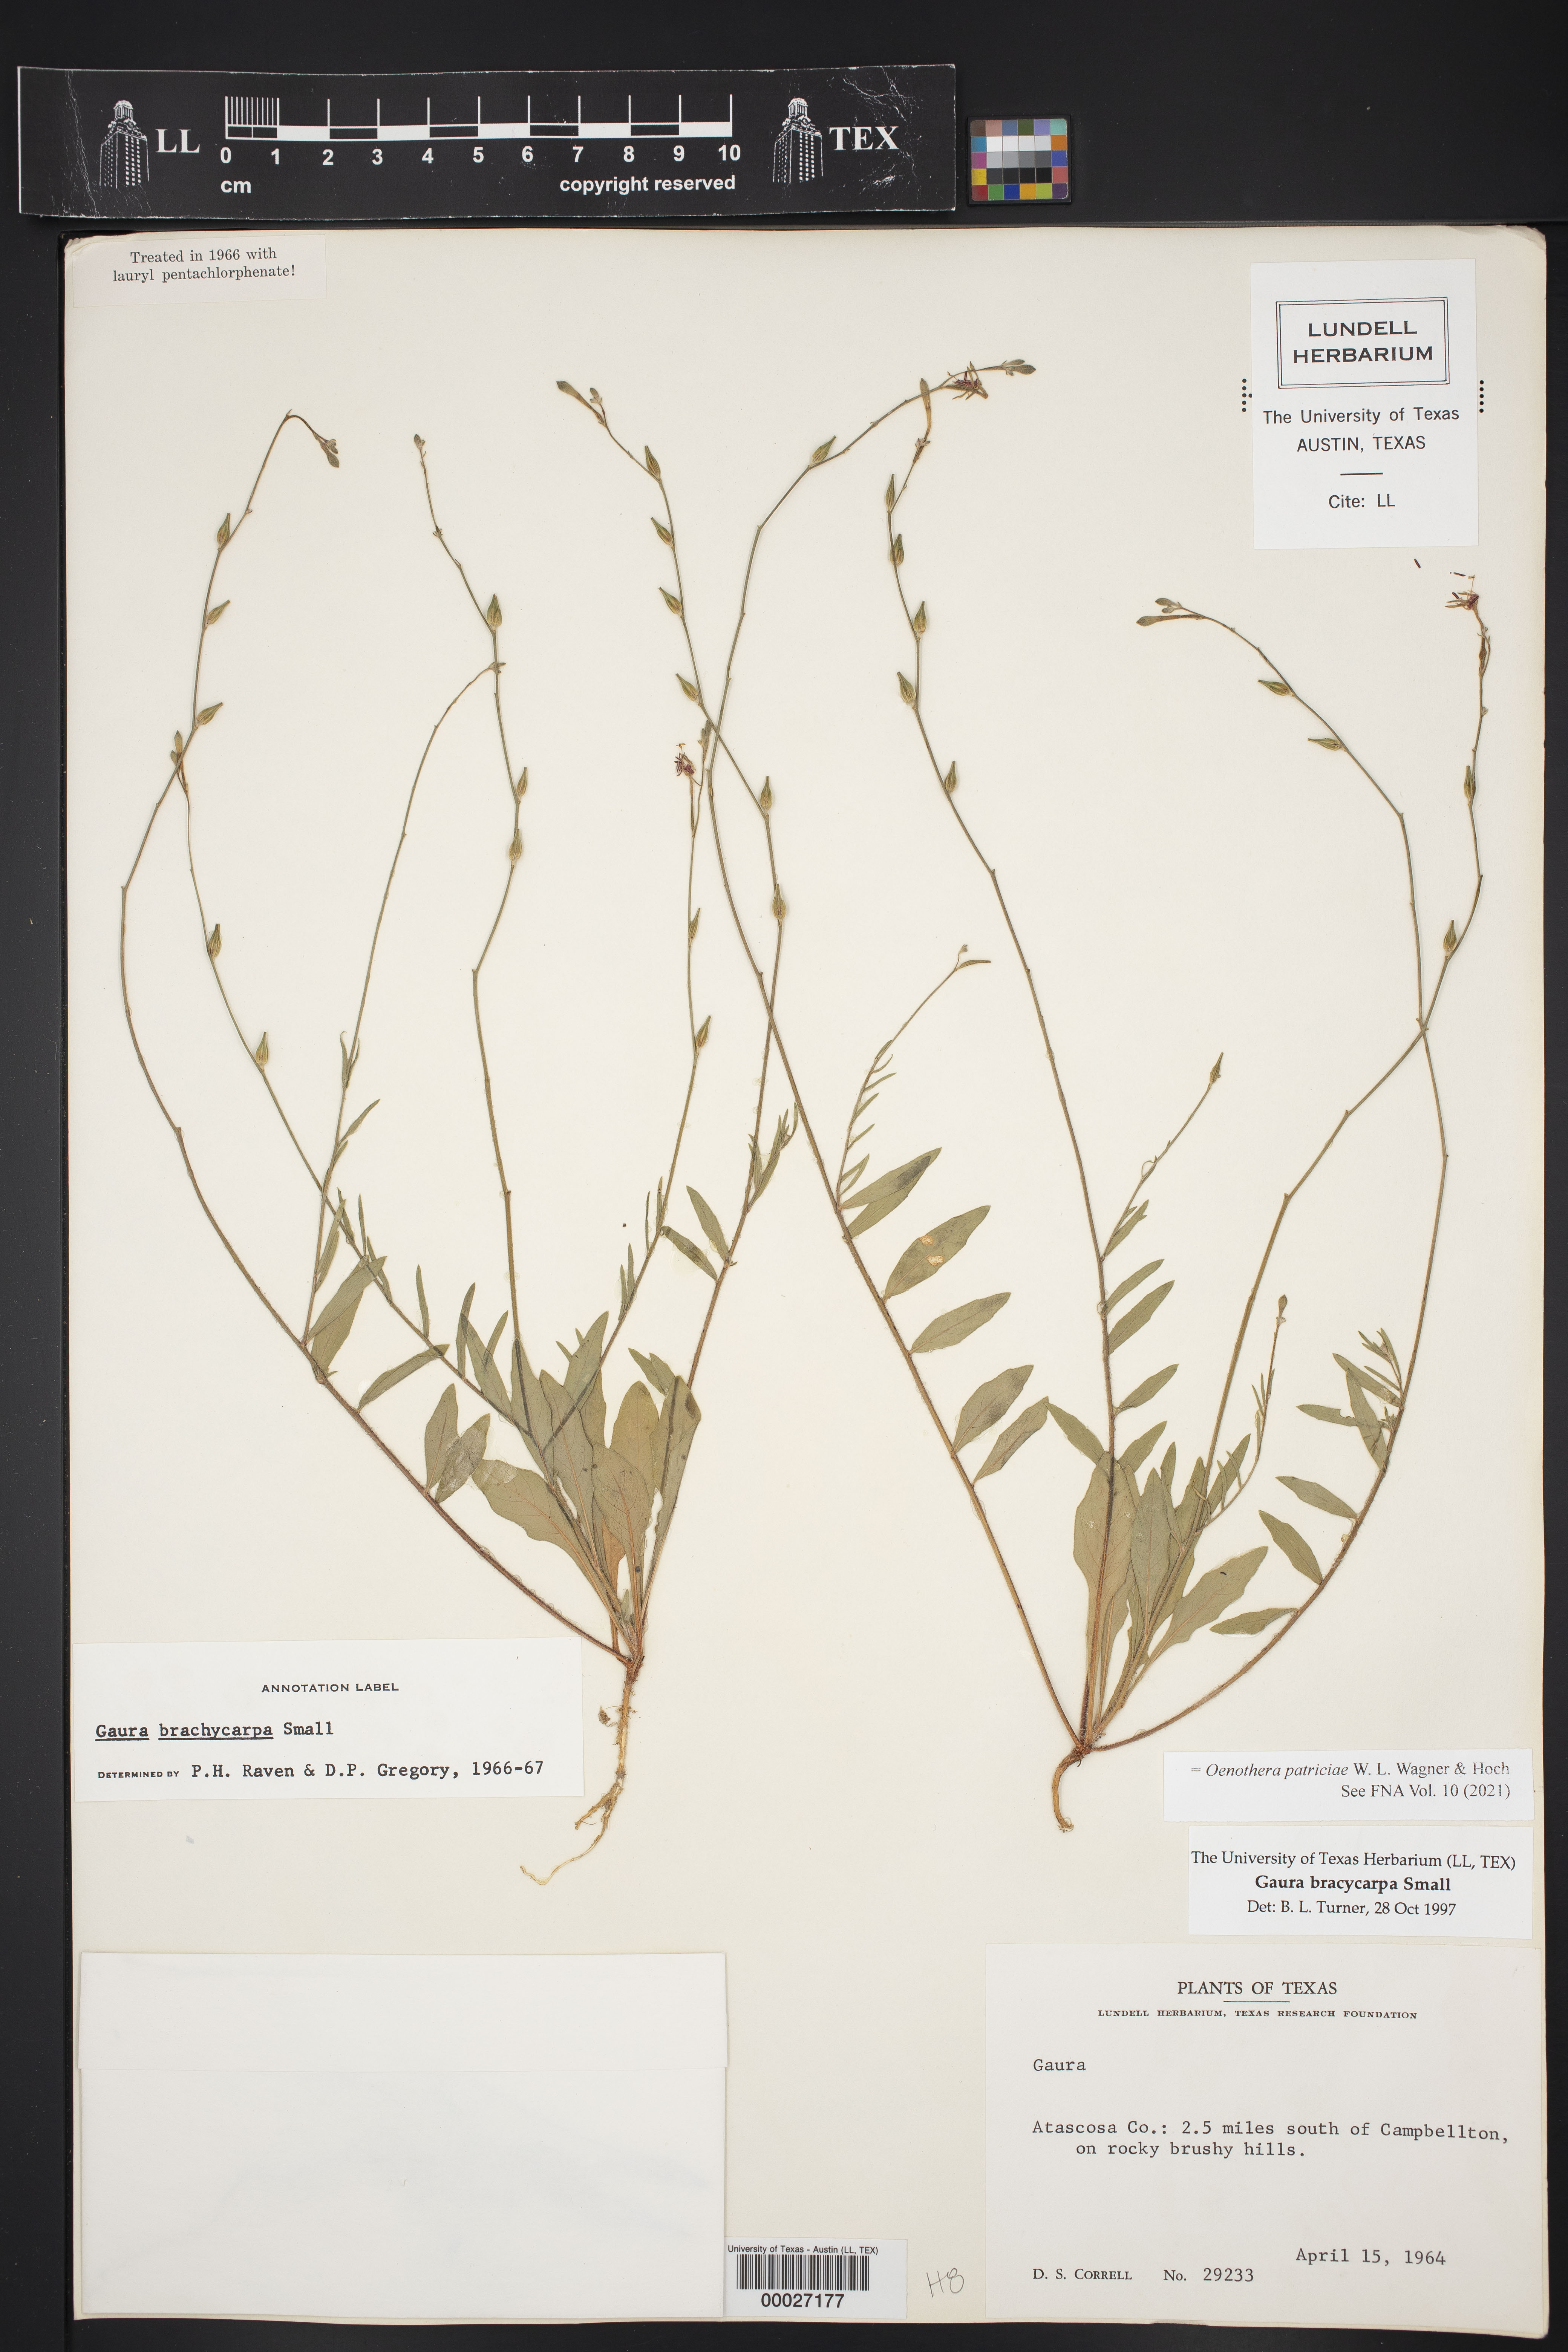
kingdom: Plantae
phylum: Tracheophyta
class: Magnoliopsida
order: Myrtales
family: Onagraceae
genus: Oenothera
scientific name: Oenothera patriciae
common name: Plains beeblossom
